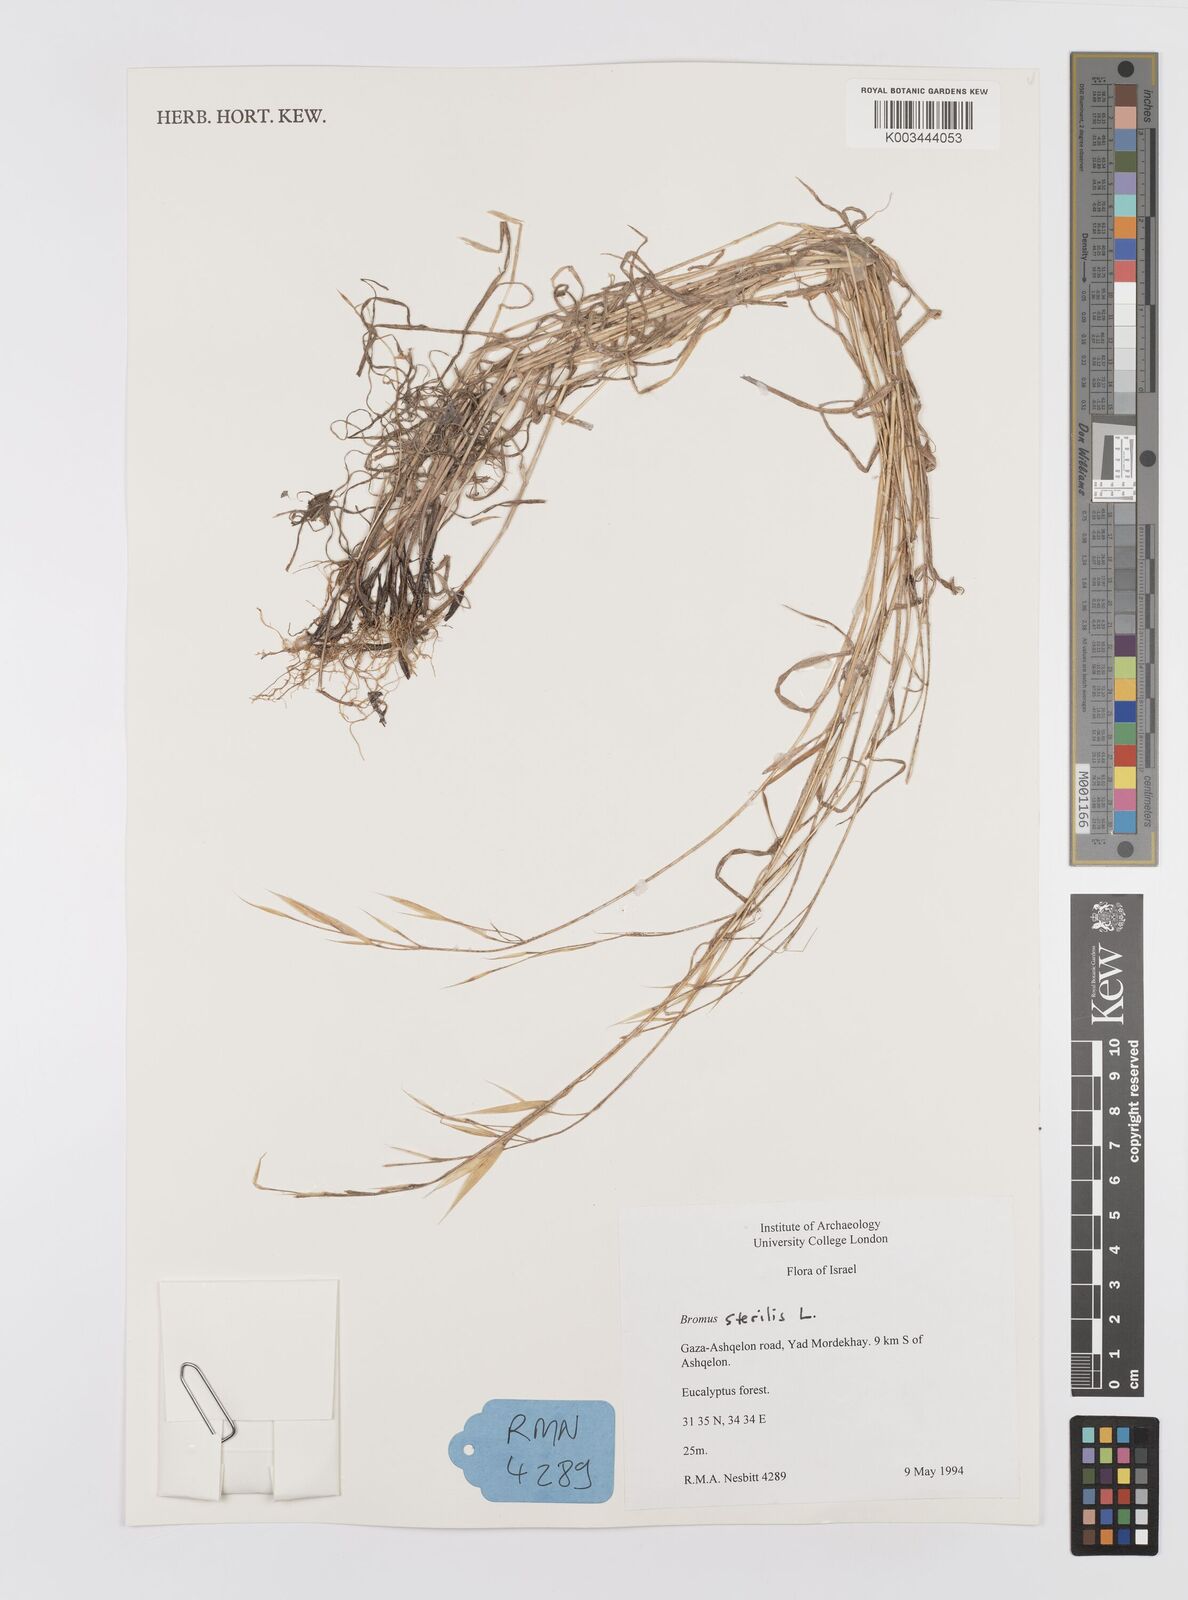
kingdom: Plantae
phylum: Tracheophyta
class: Liliopsida
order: Poales
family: Poaceae
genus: Bromus
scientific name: Bromus sterilis
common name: Poverty brome
